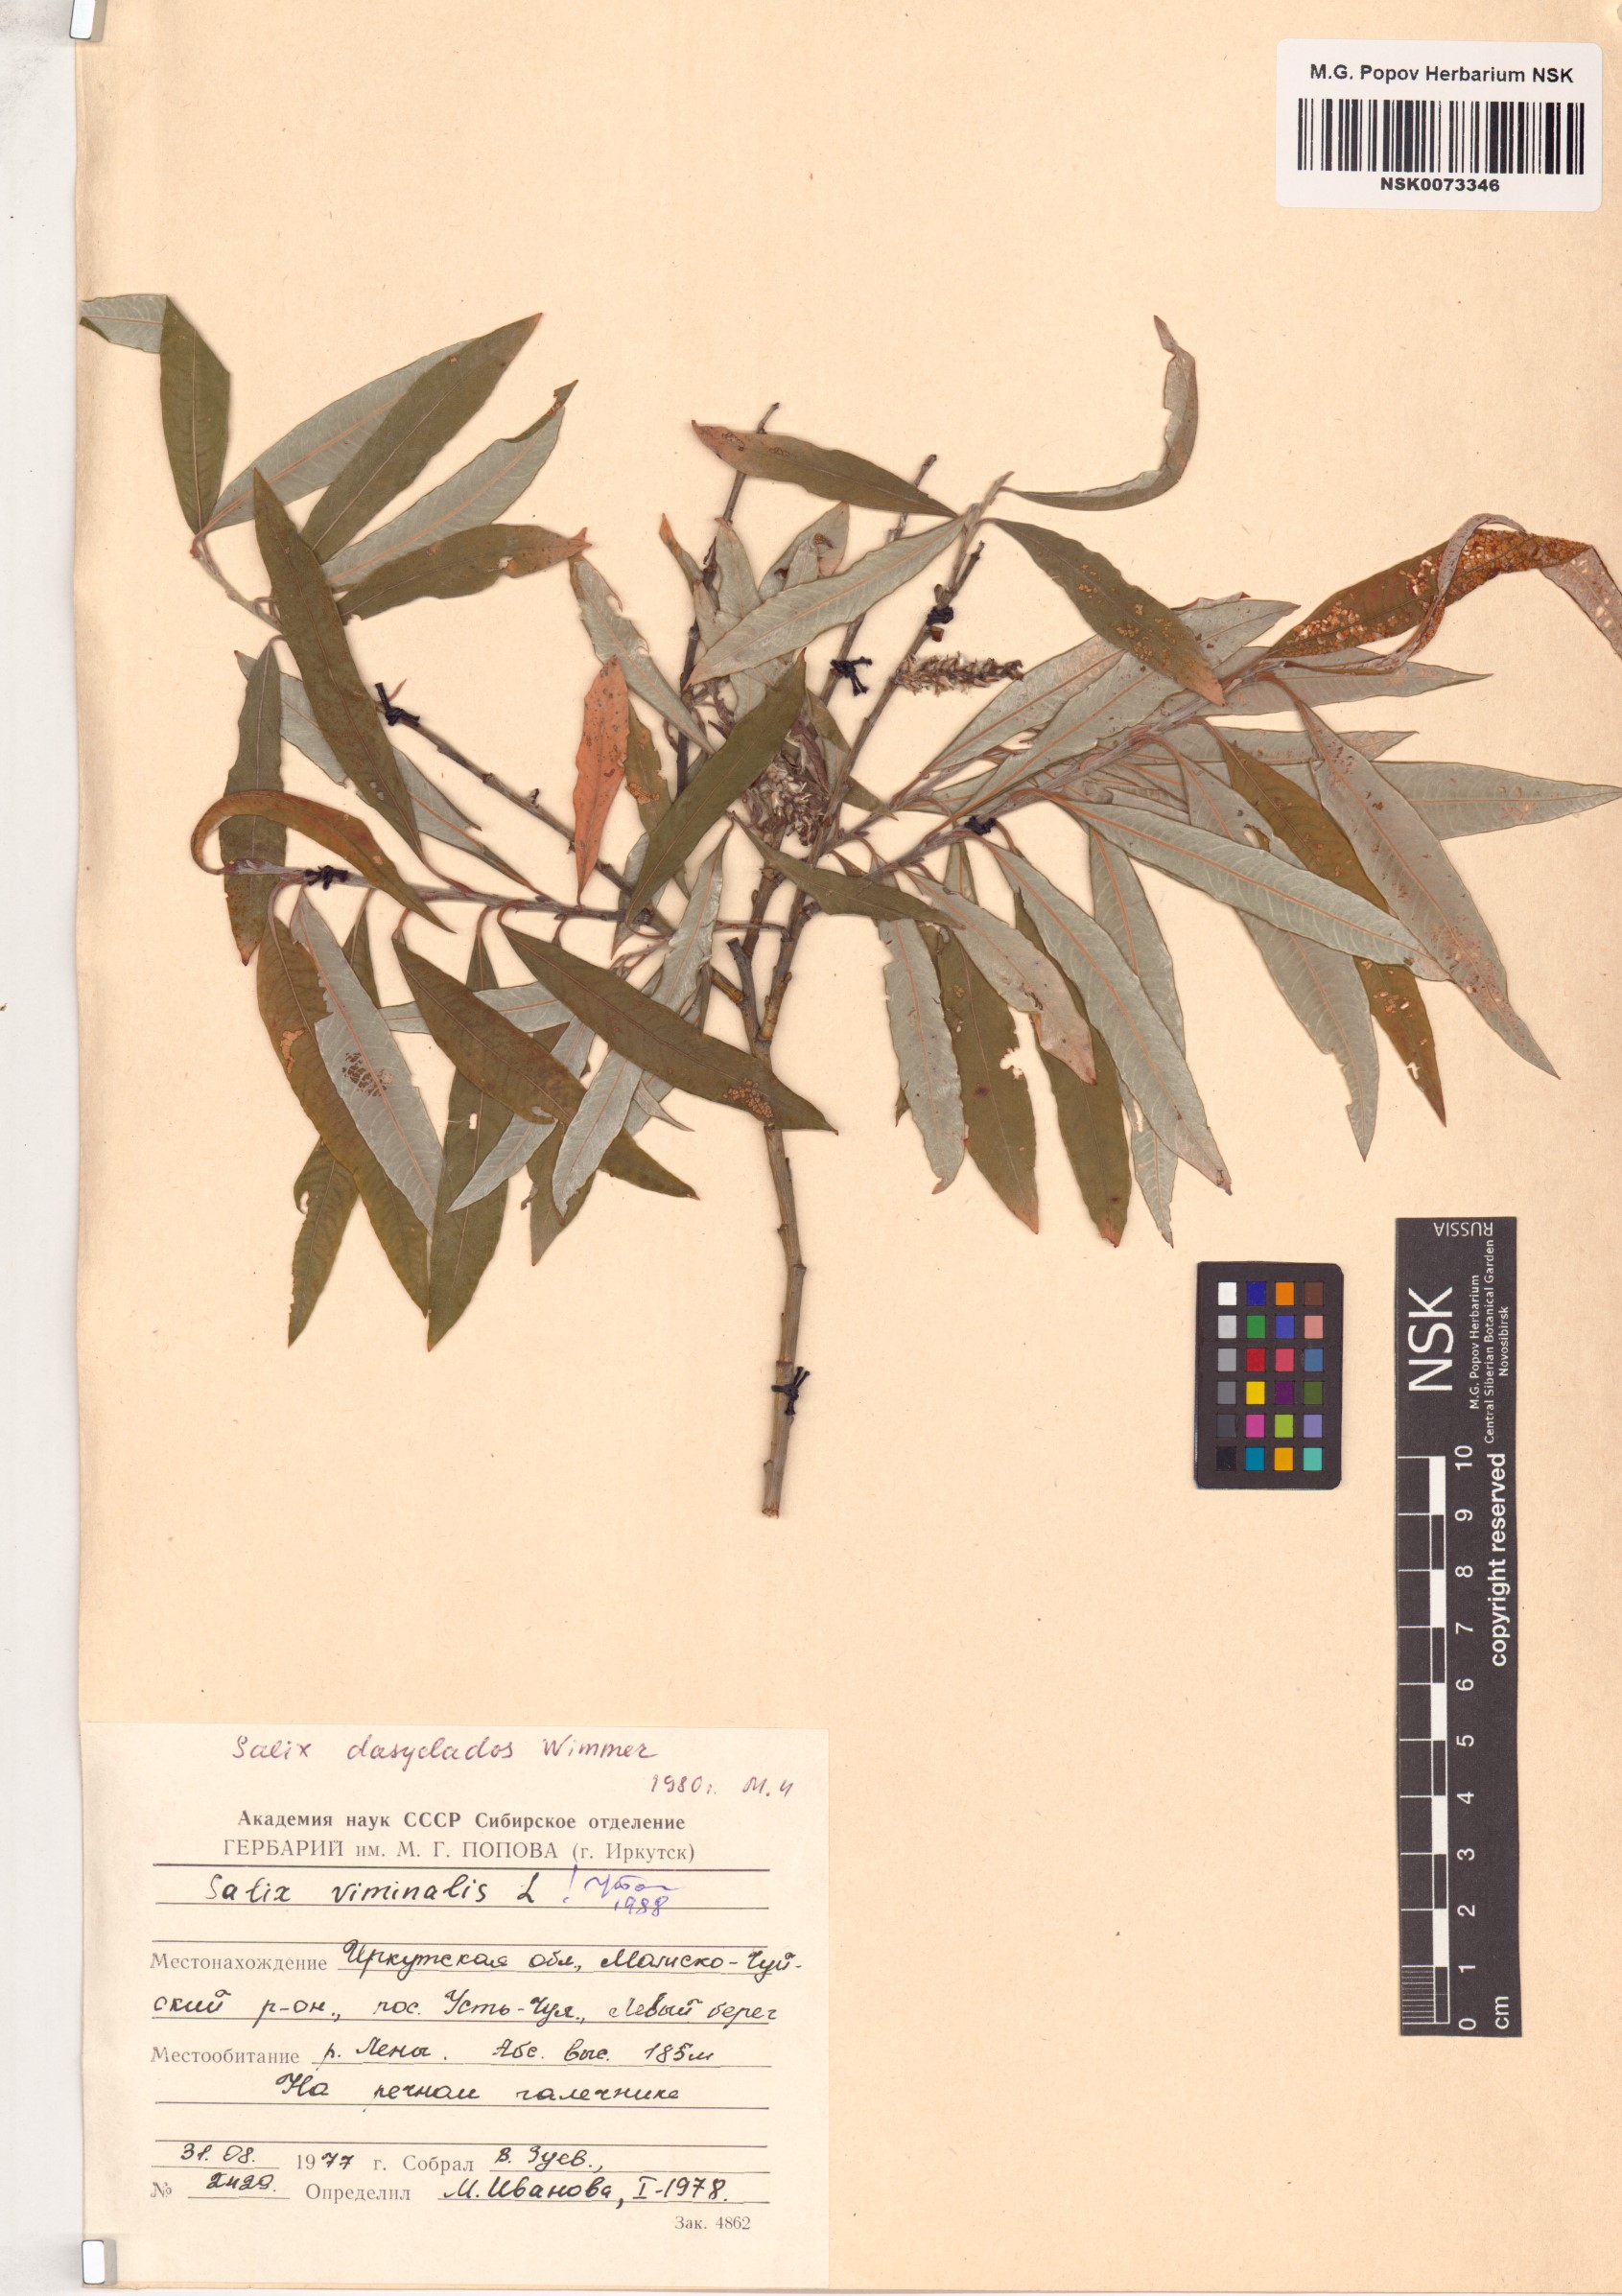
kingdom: Plantae
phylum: Tracheophyta
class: Magnoliopsida
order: Malpighiales
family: Salicaceae
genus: Salix
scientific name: Salix viminalis
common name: Osier
